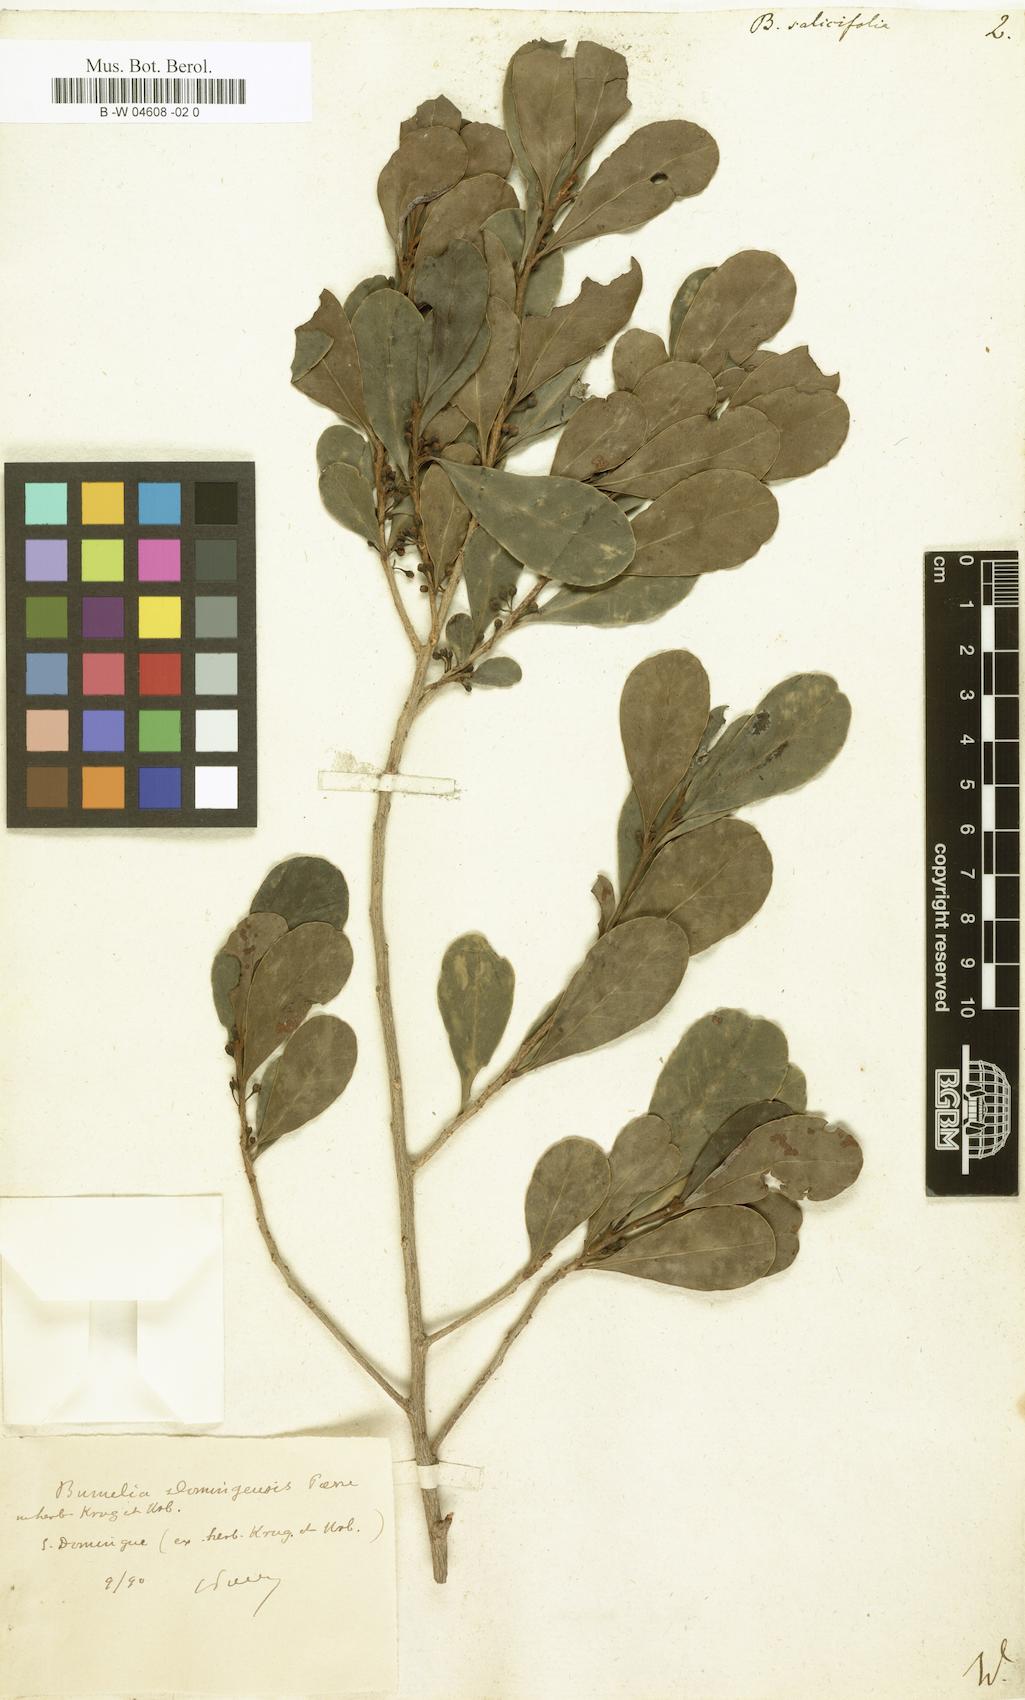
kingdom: Plantae
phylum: Tracheophyta
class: Magnoliopsida
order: Ericales
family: Sapotaceae
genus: Sideroxylon
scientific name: Sideroxylon salicifolium
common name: White bully
